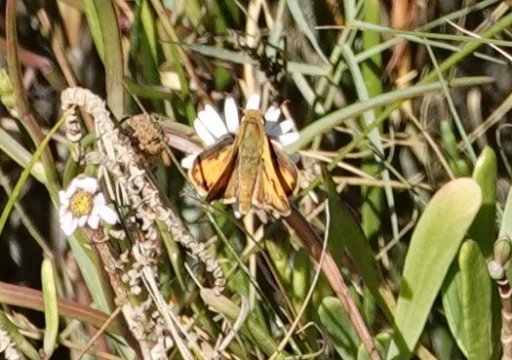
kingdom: Animalia
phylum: Arthropoda
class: Insecta
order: Lepidoptera
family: Hesperiidae
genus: Hylephila
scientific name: Hylephila phyleus
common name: Fiery Skipper
